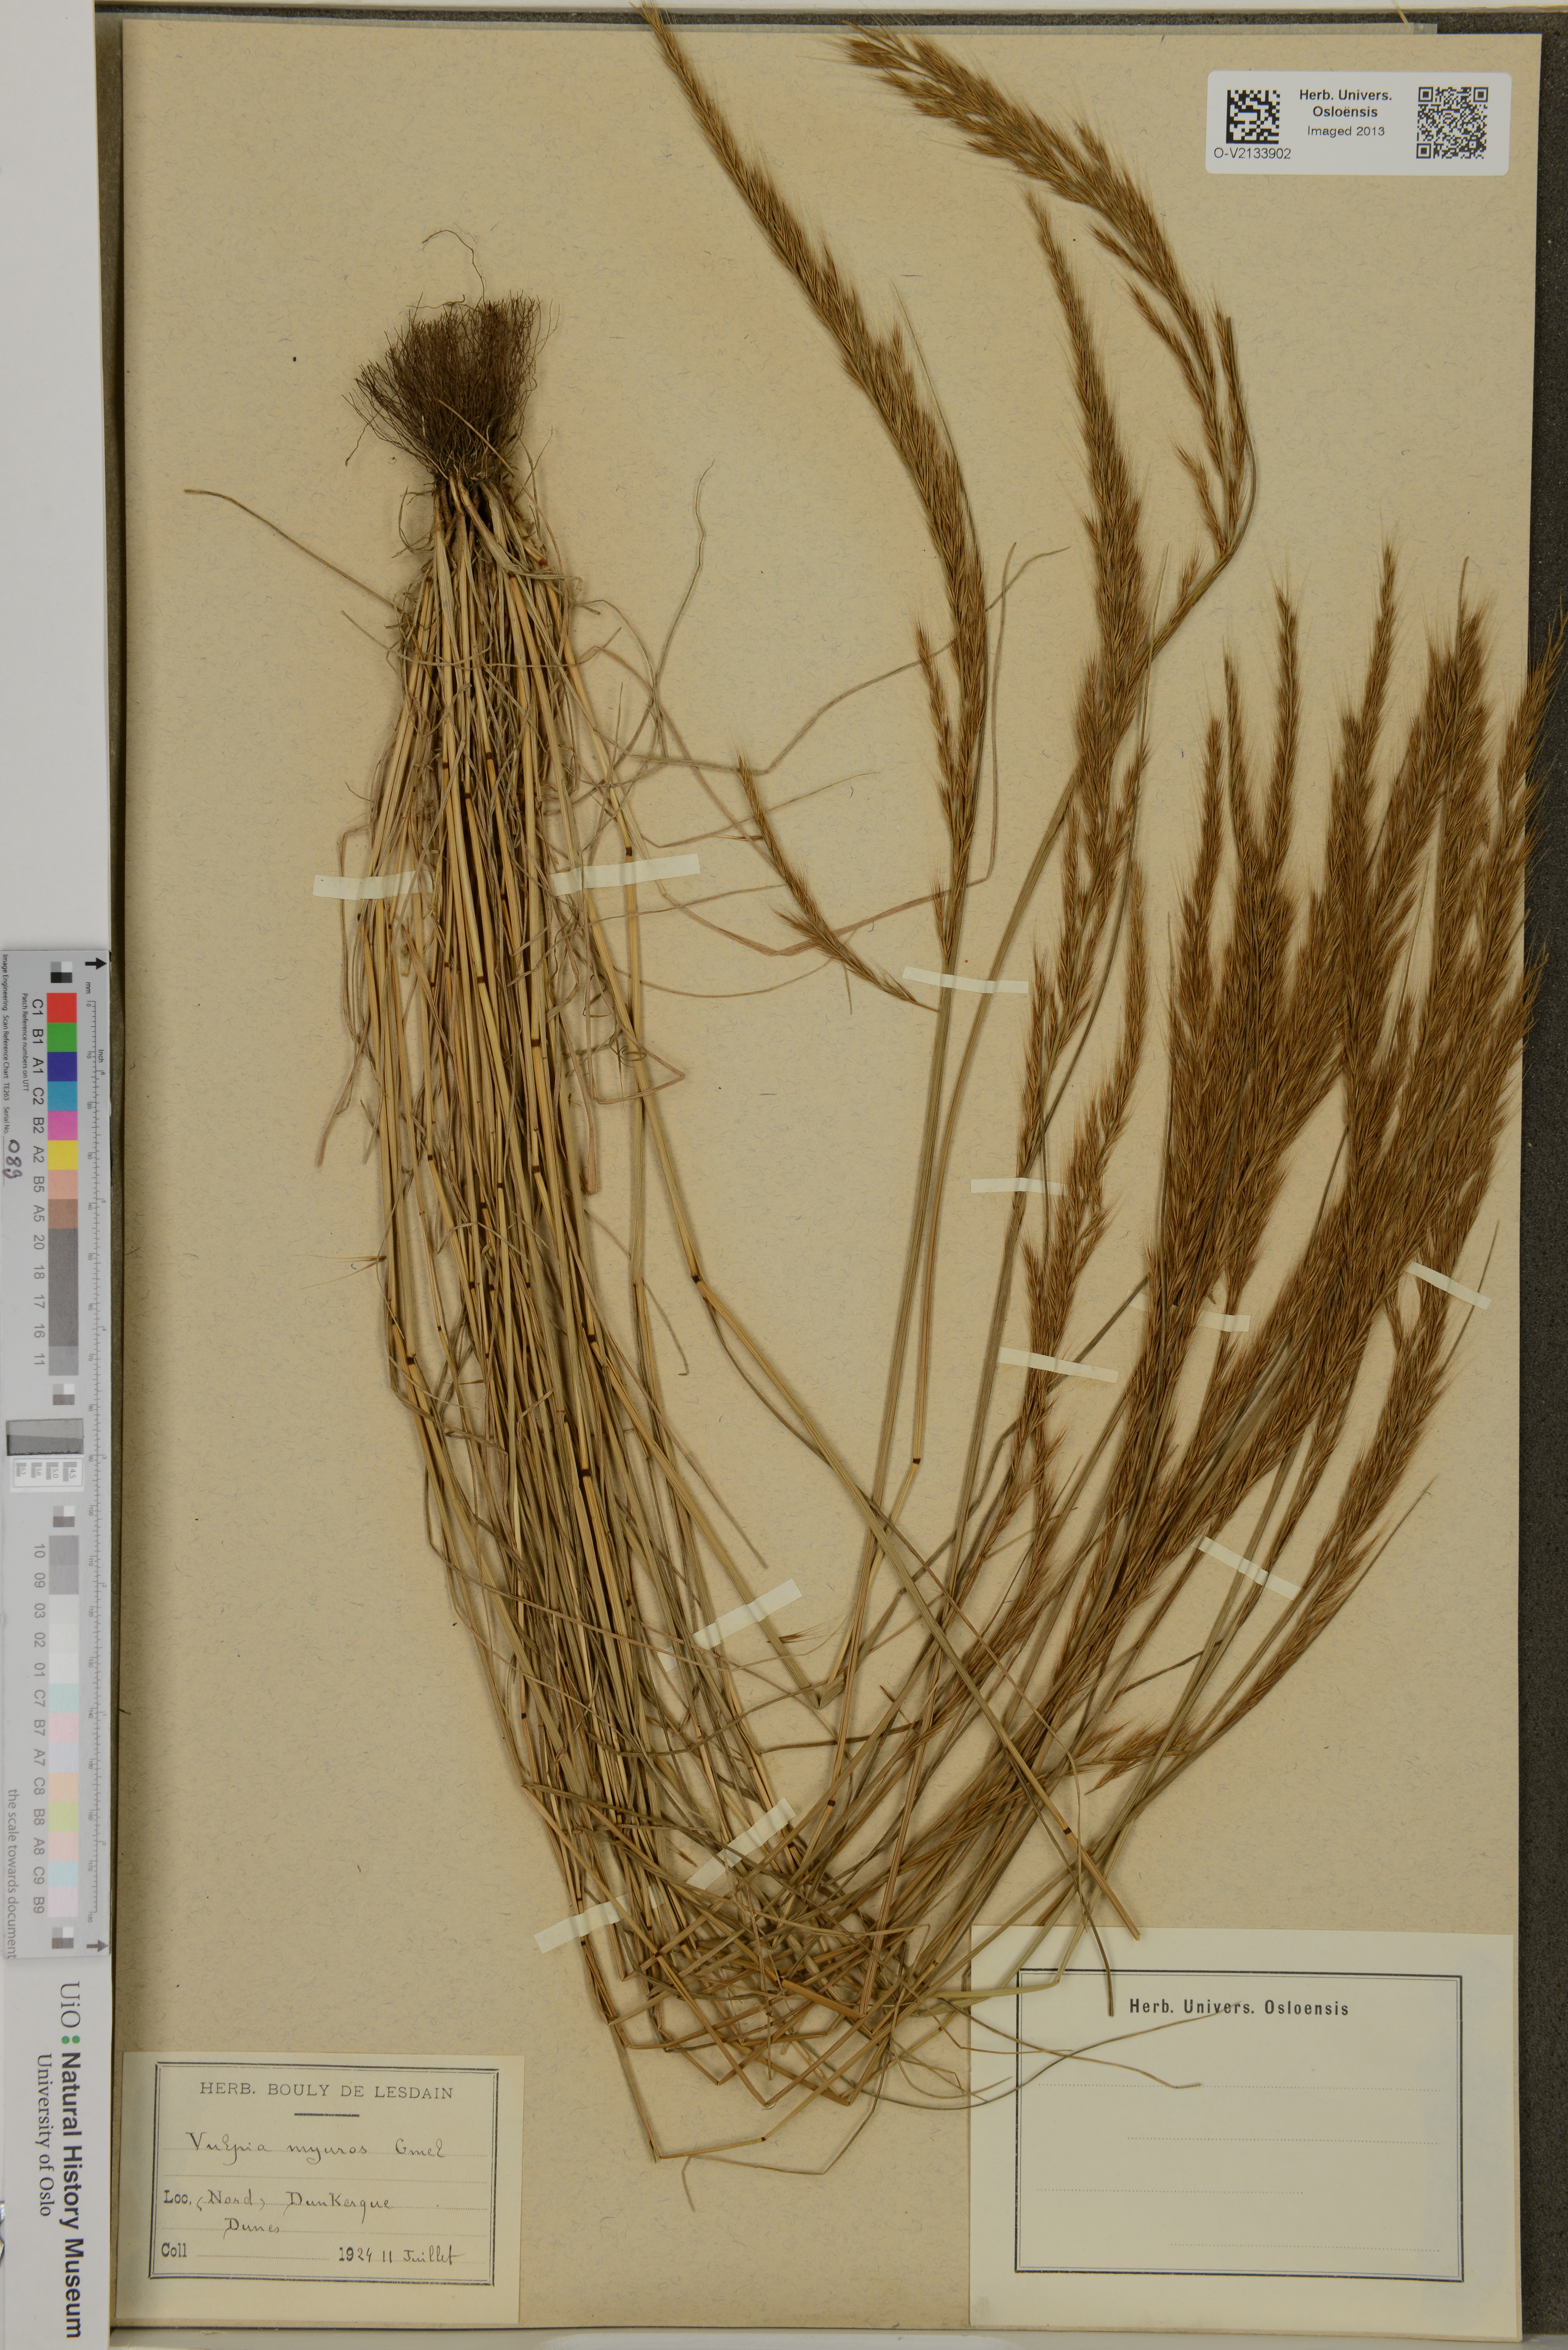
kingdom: Plantae
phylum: Tracheophyta
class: Liliopsida
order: Poales
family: Poaceae
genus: Festuca
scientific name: Festuca myuros
